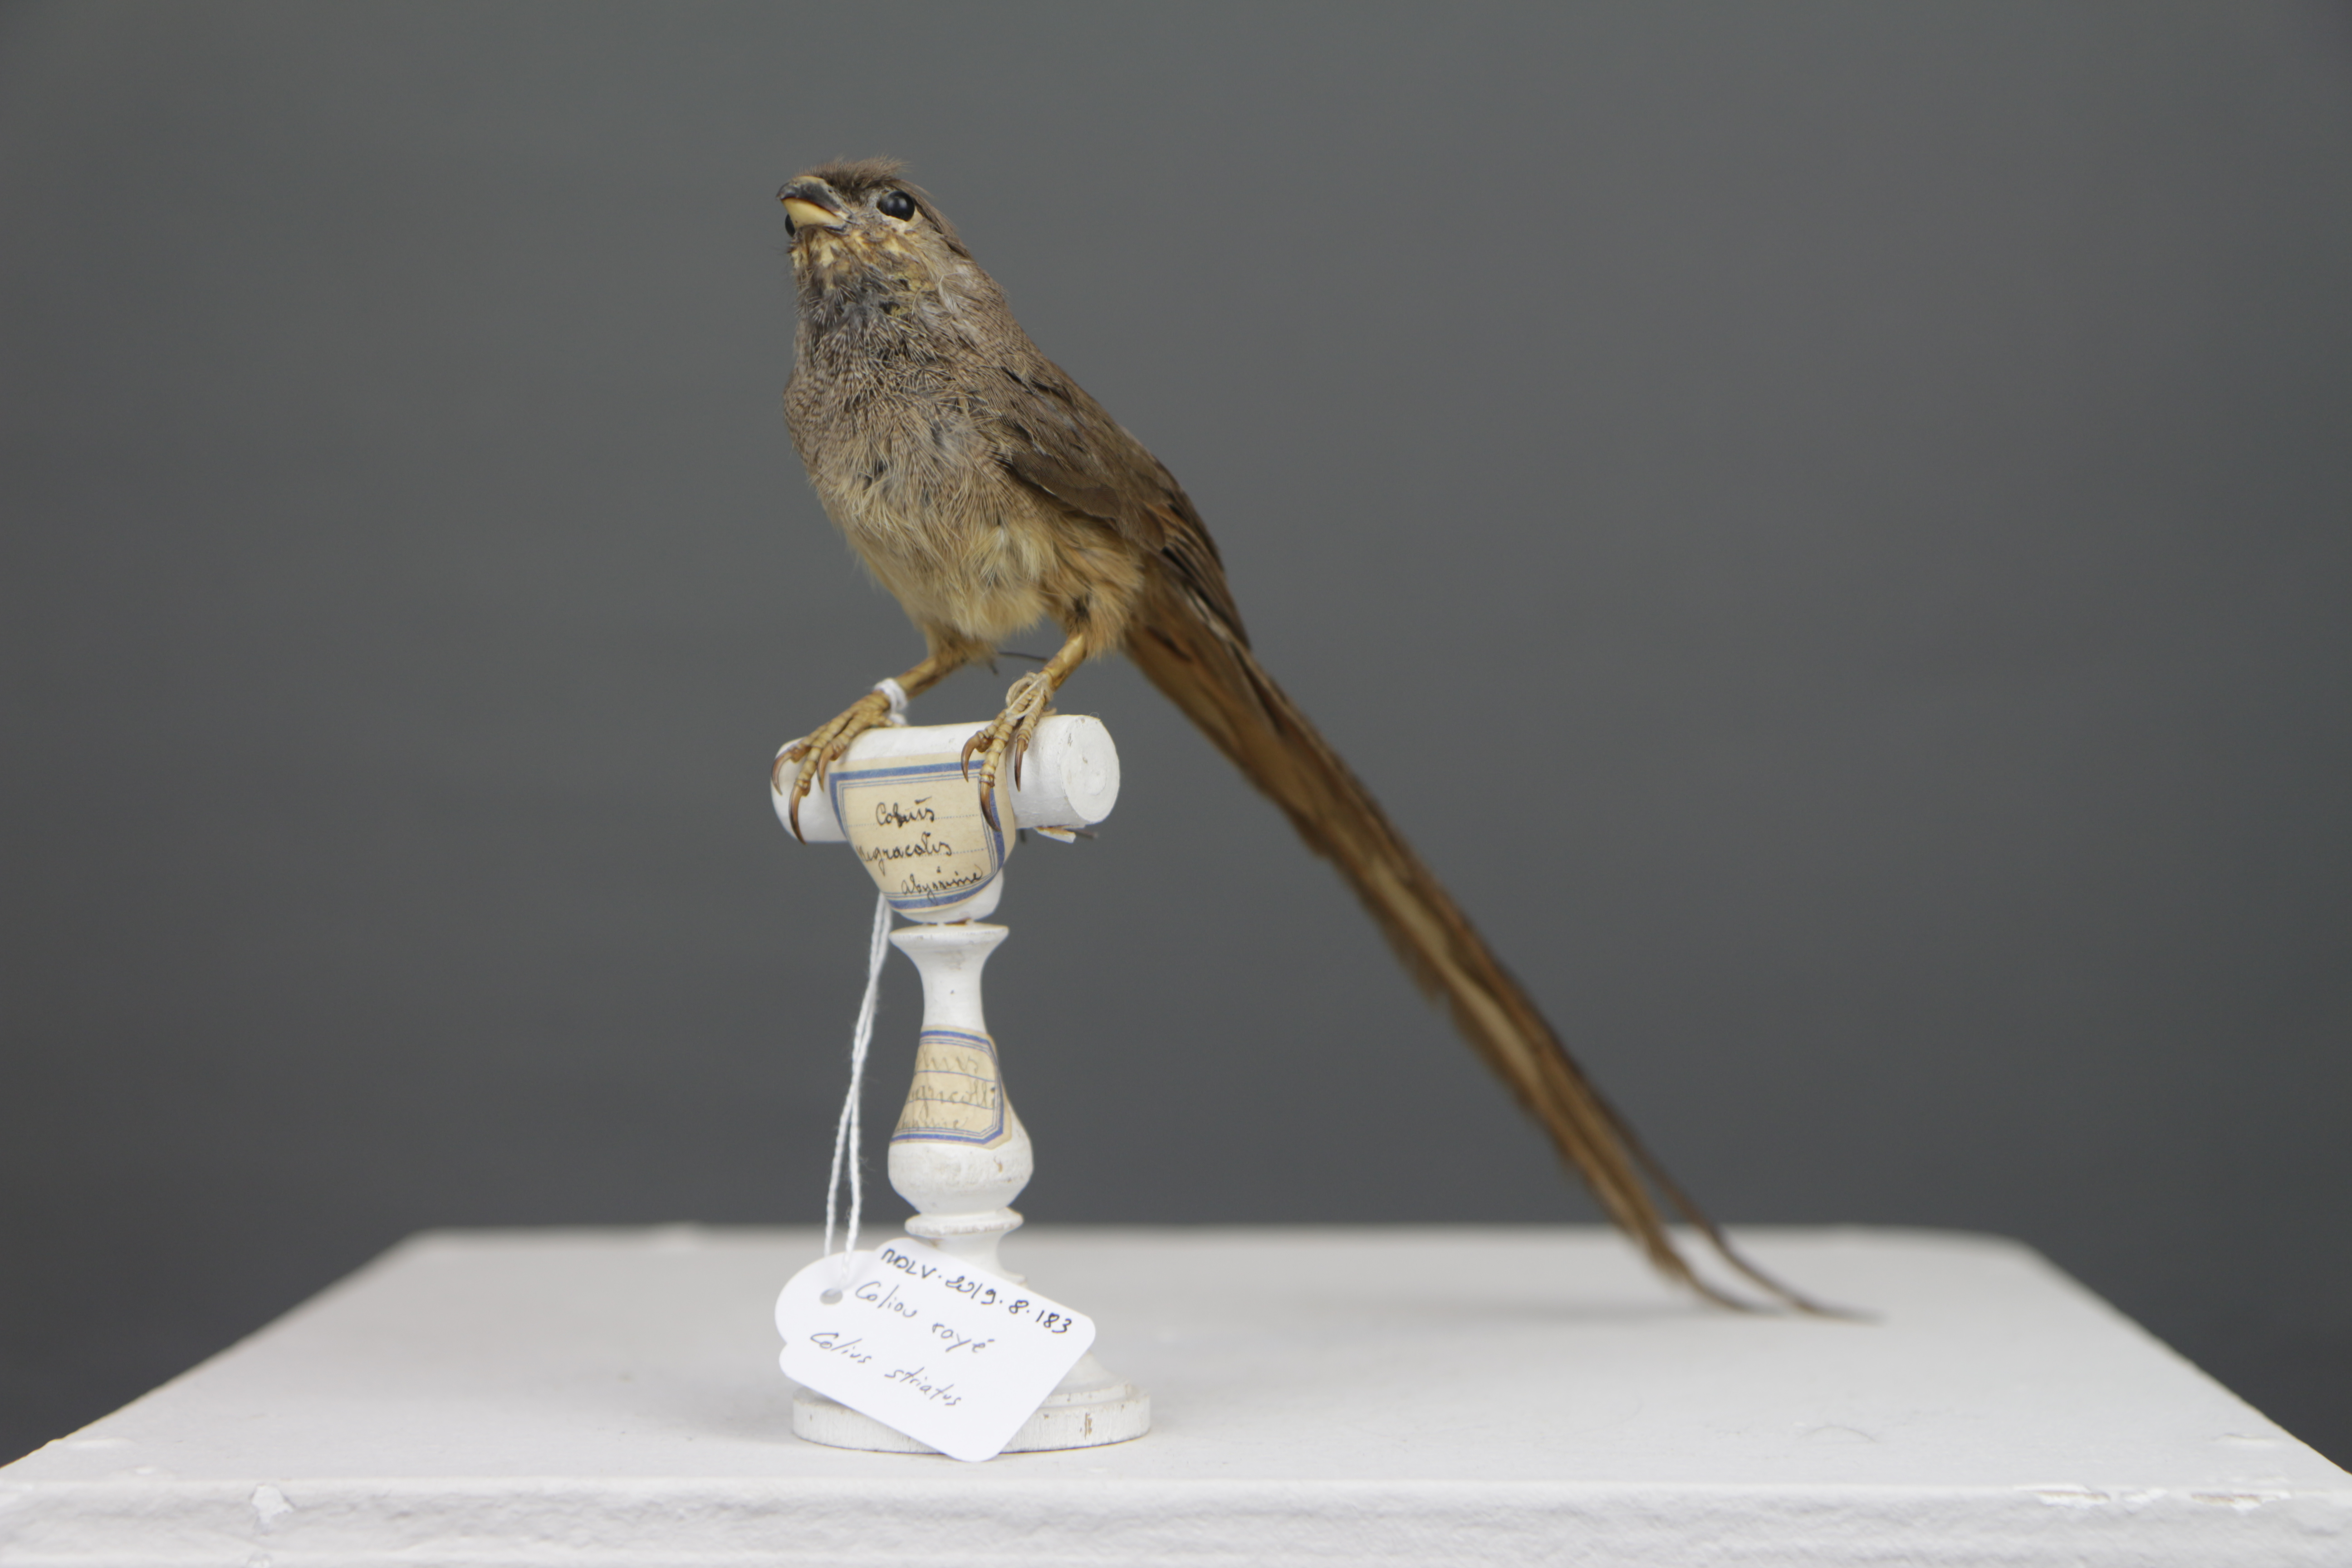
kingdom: Animalia
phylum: Chordata
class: Aves
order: Coliiformes
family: Coliidae
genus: Colius
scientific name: Colius striatus
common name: Speckled mousebird
